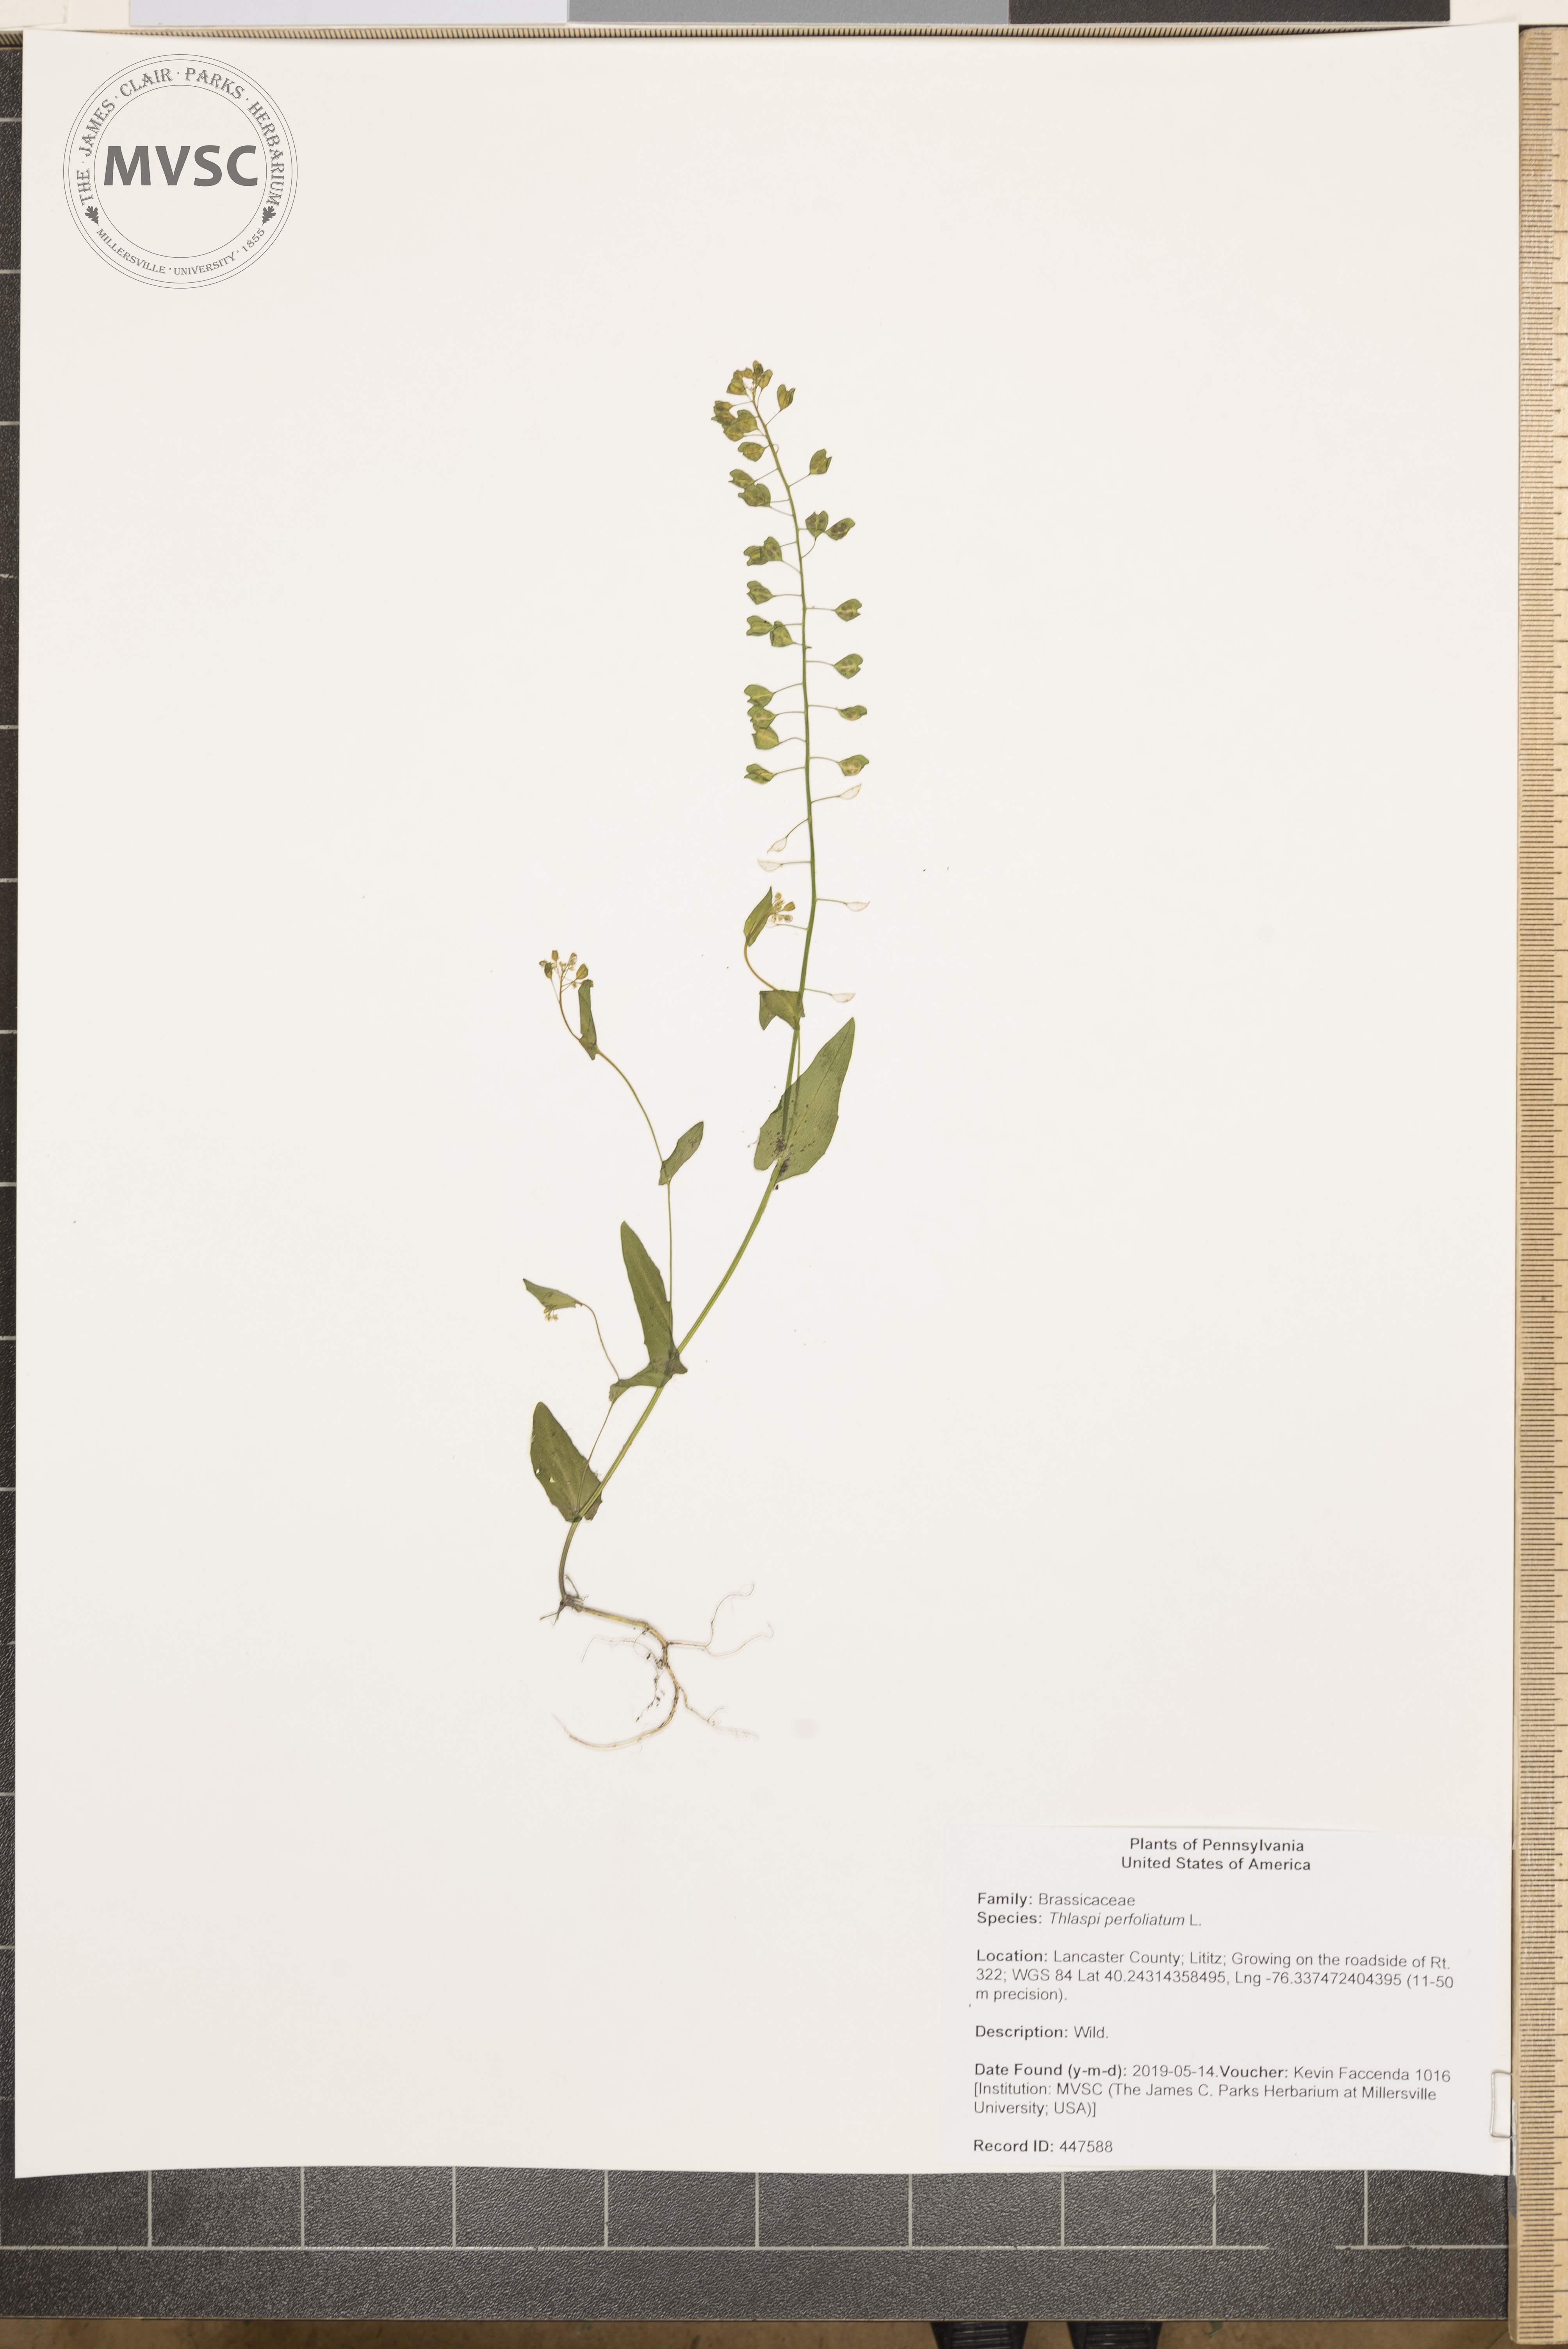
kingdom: Plantae
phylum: Tracheophyta
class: Magnoliopsida
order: Brassicales
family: Brassicaceae
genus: Noccaea
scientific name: Noccaea perfoliata
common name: Perfoliate pennycress
